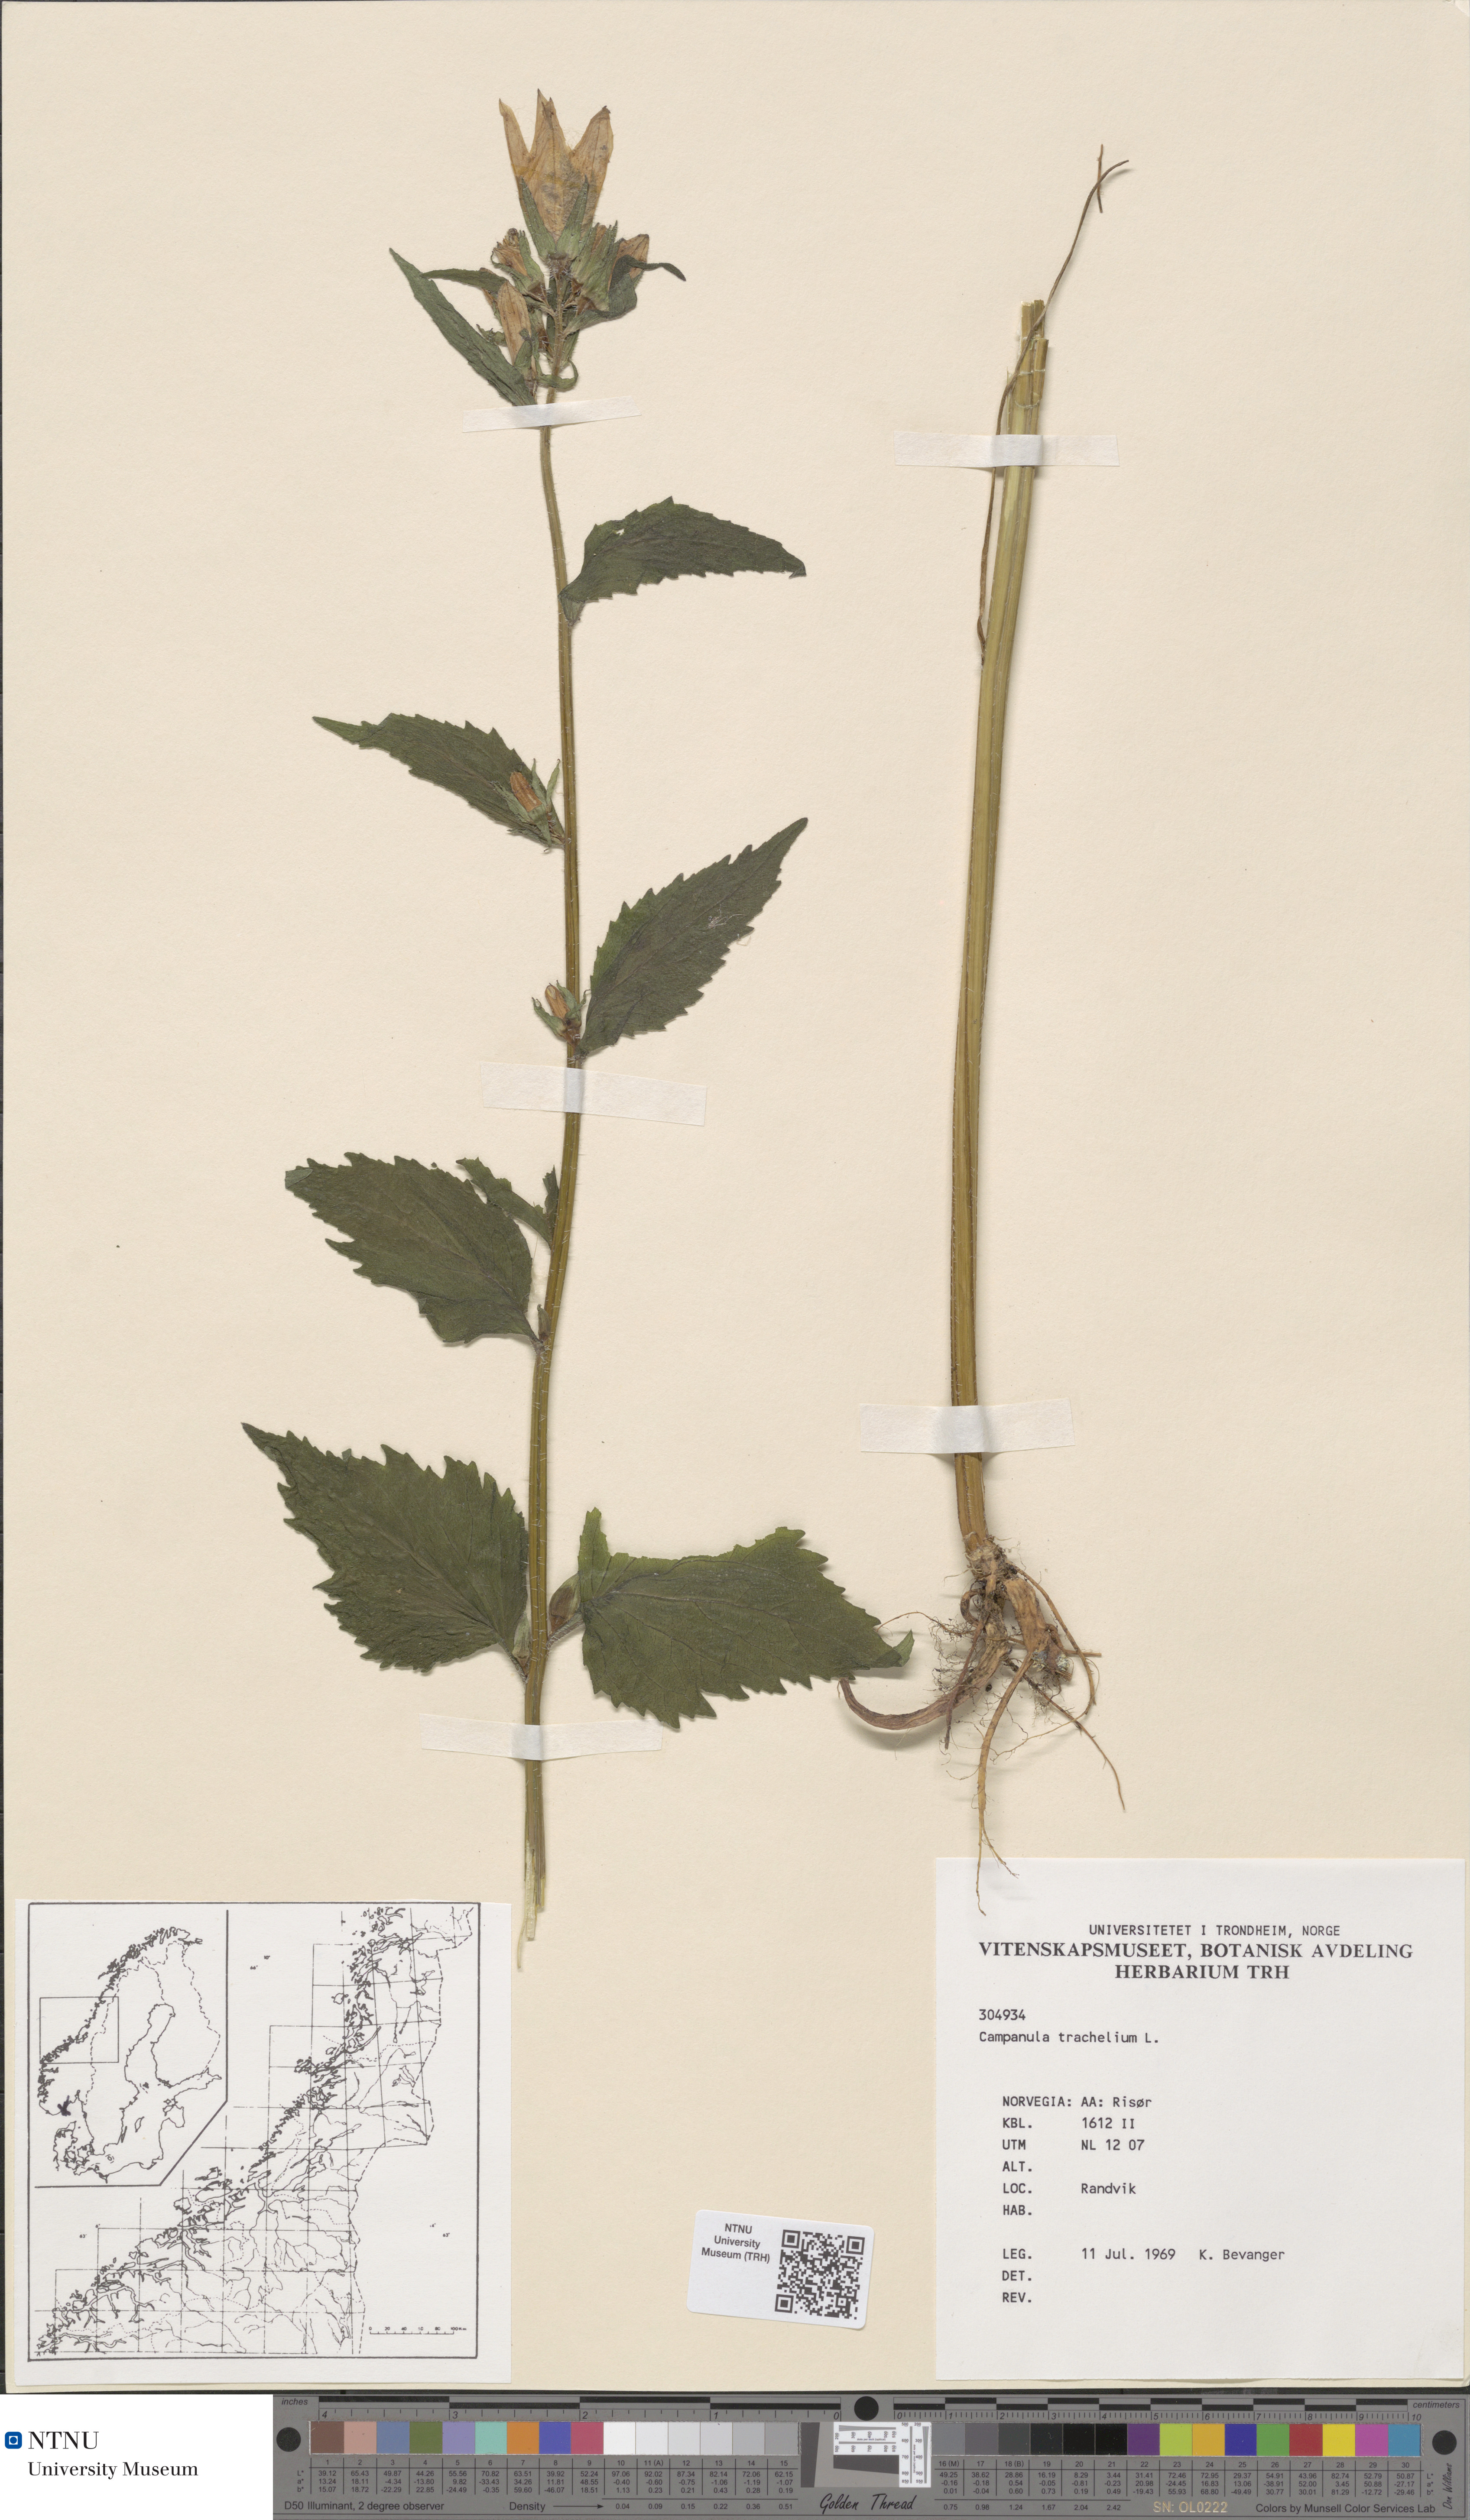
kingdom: Plantae
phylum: Tracheophyta
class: Magnoliopsida
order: Asterales
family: Campanulaceae
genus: Campanula
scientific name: Campanula trachelium
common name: Nettle-leaved bellflower
